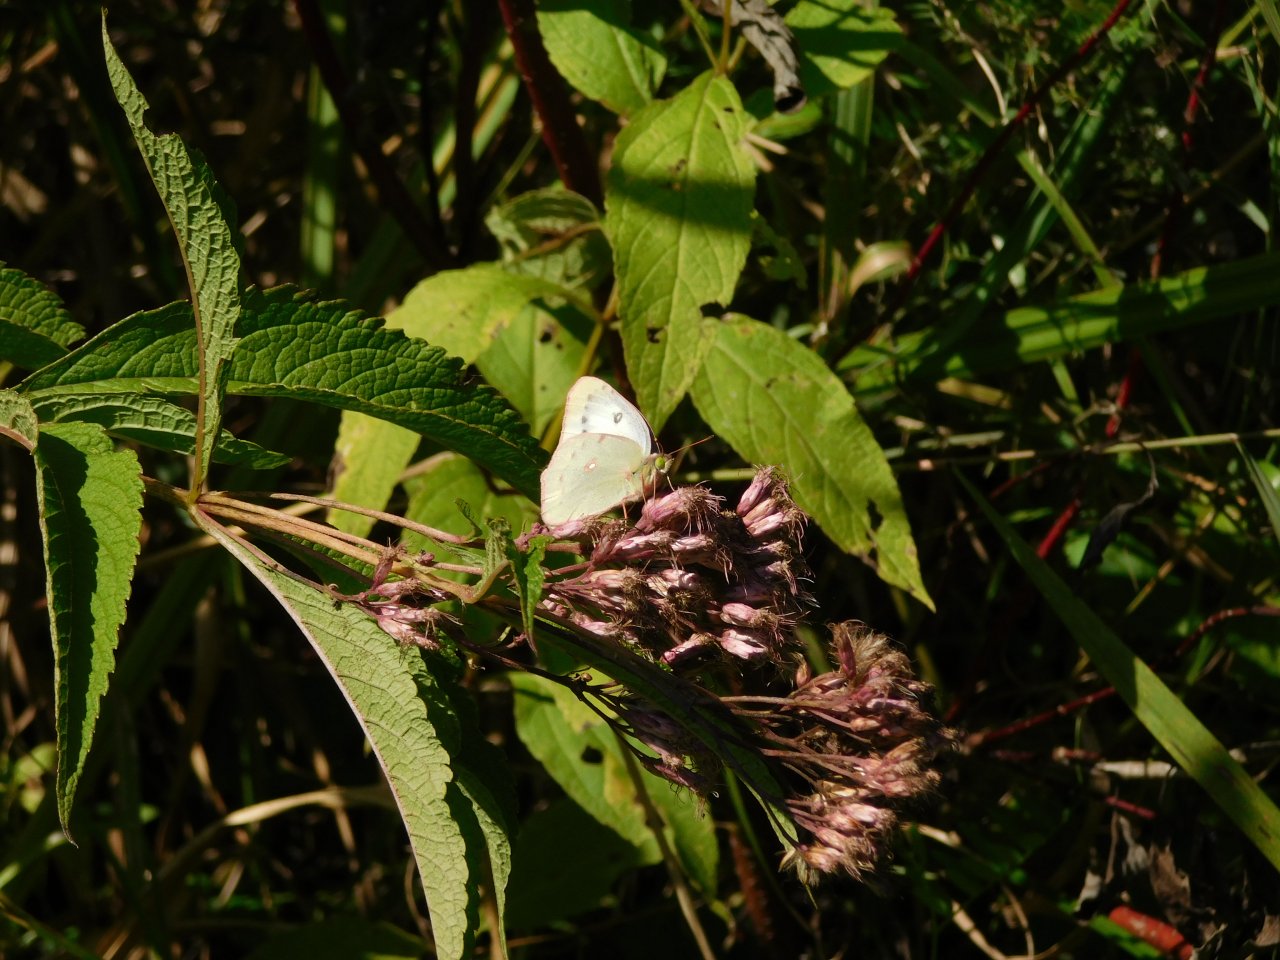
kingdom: Animalia
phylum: Arthropoda
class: Insecta
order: Lepidoptera
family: Pieridae
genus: Colias
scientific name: Colias philodice
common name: Clouded Sulphur
